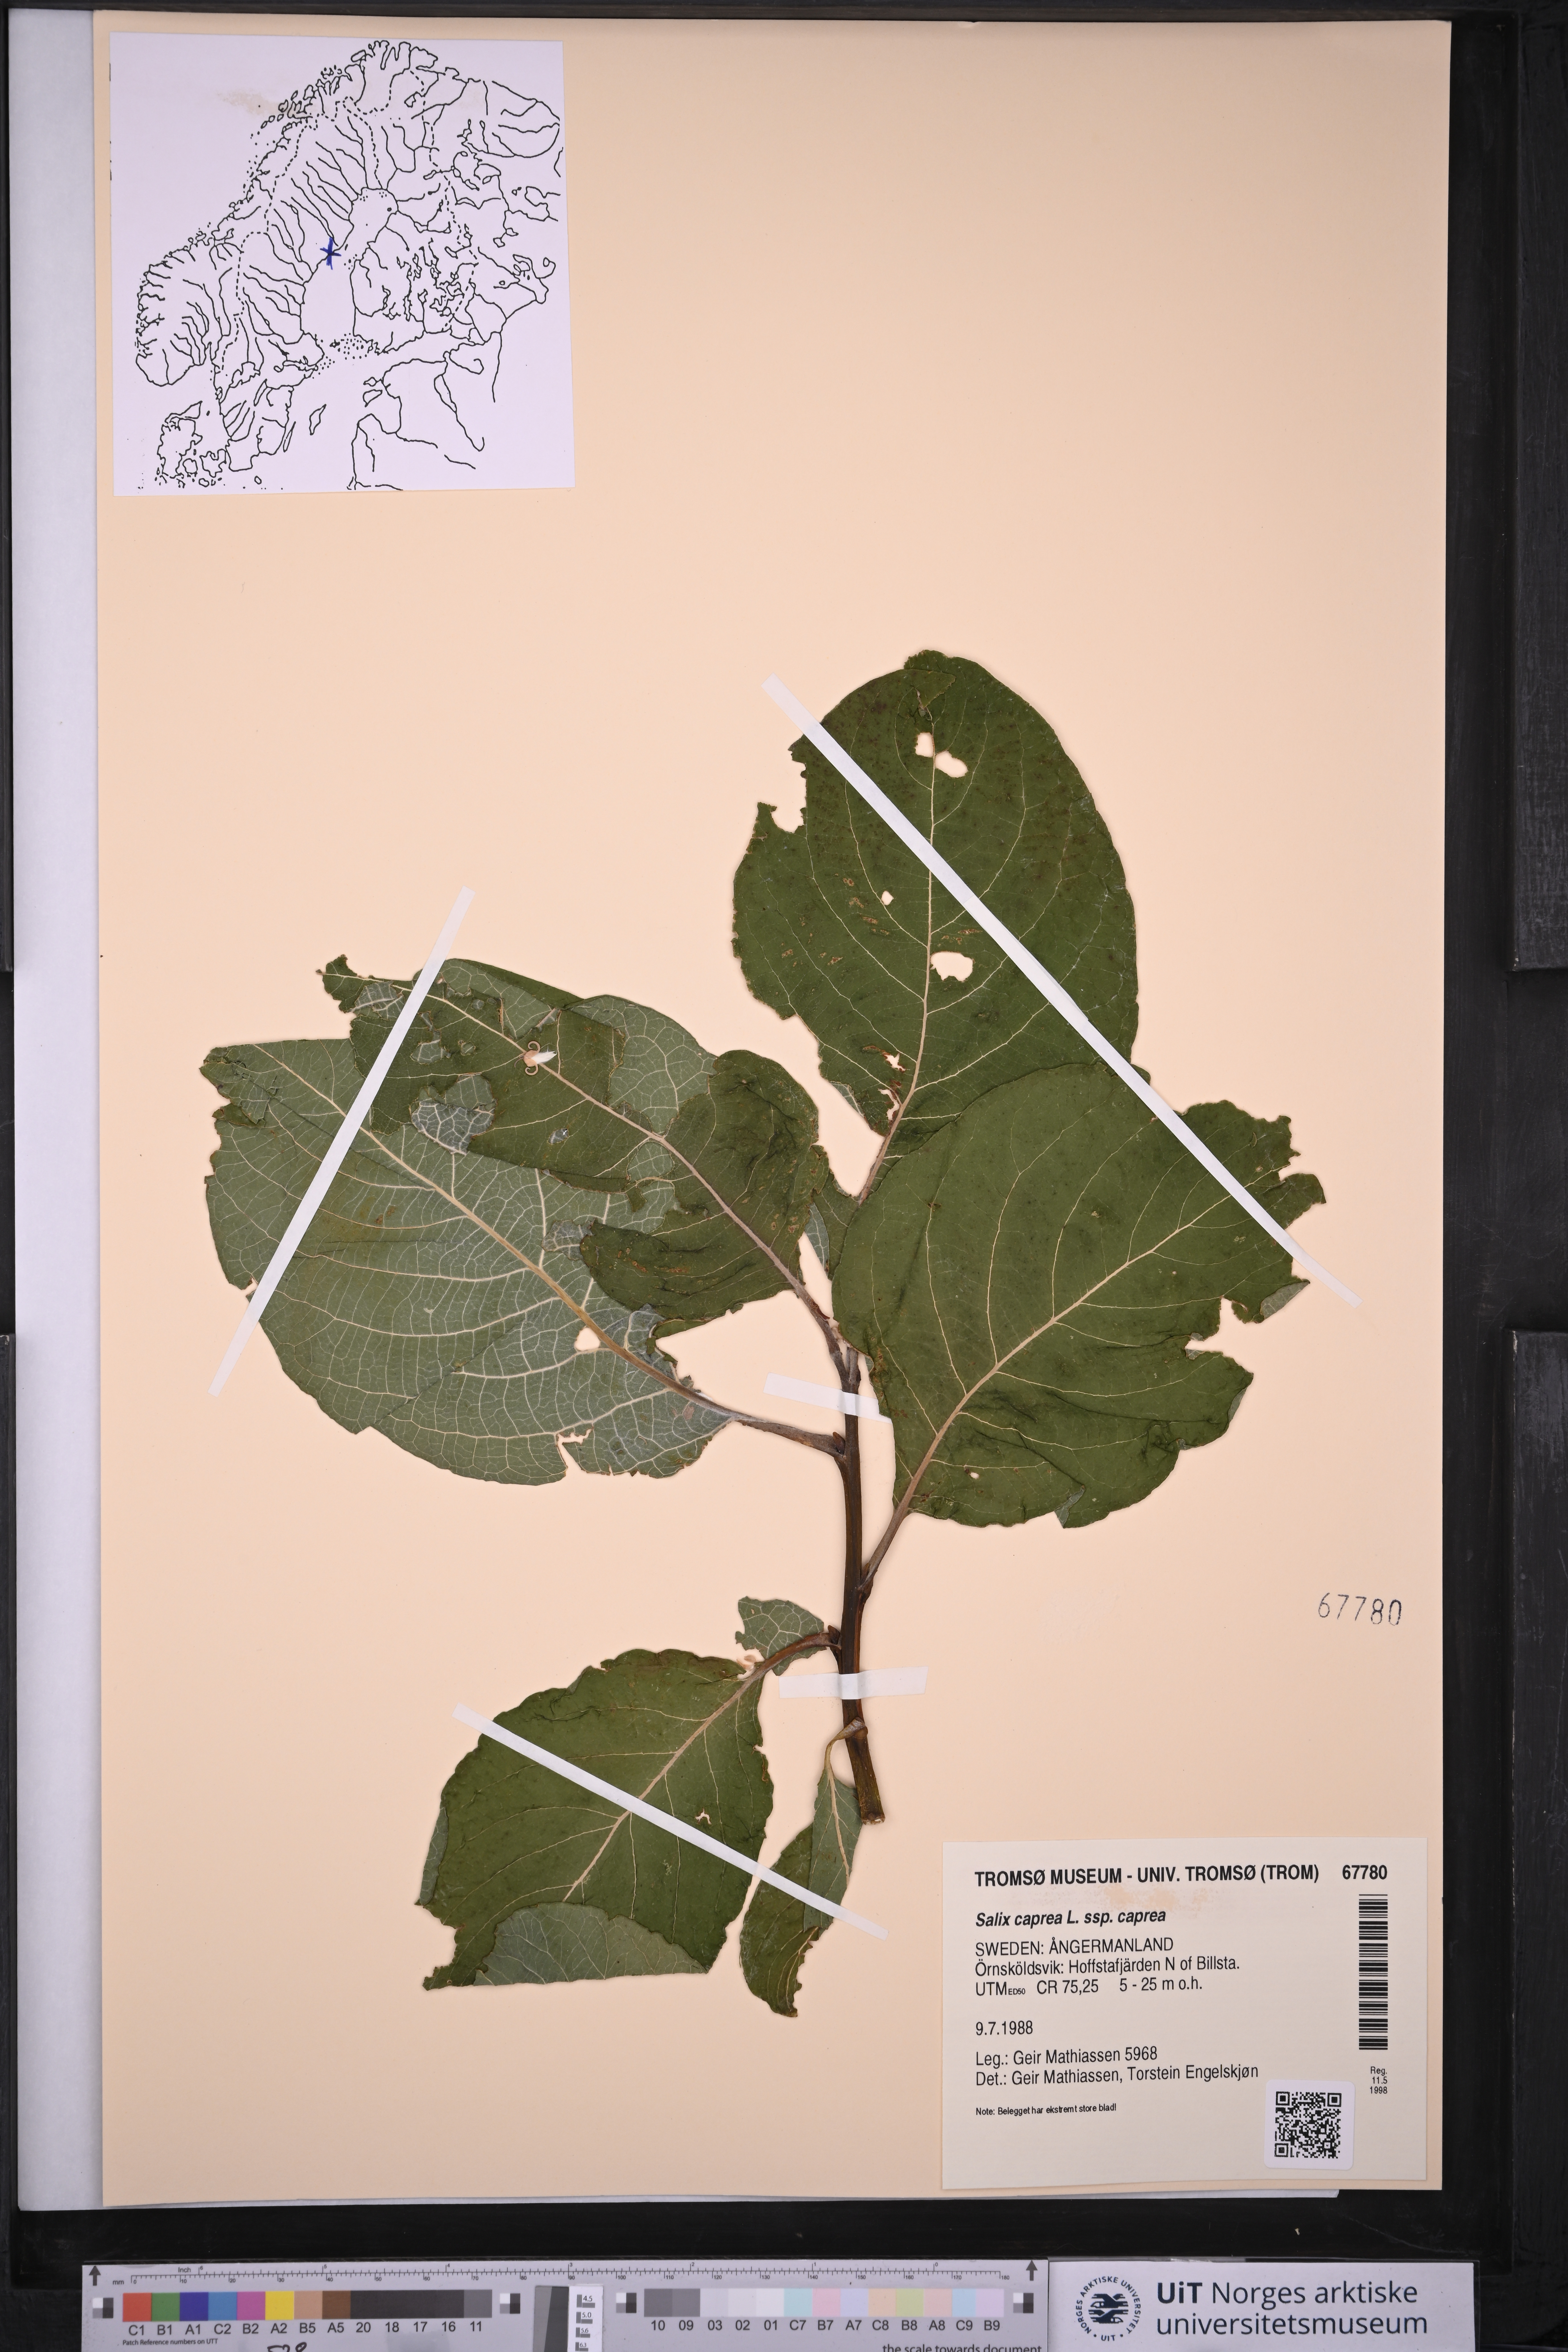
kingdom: Plantae
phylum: Tracheophyta
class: Magnoliopsida
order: Malpighiales
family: Salicaceae
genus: Salix
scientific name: Salix caprea
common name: Goat willow
